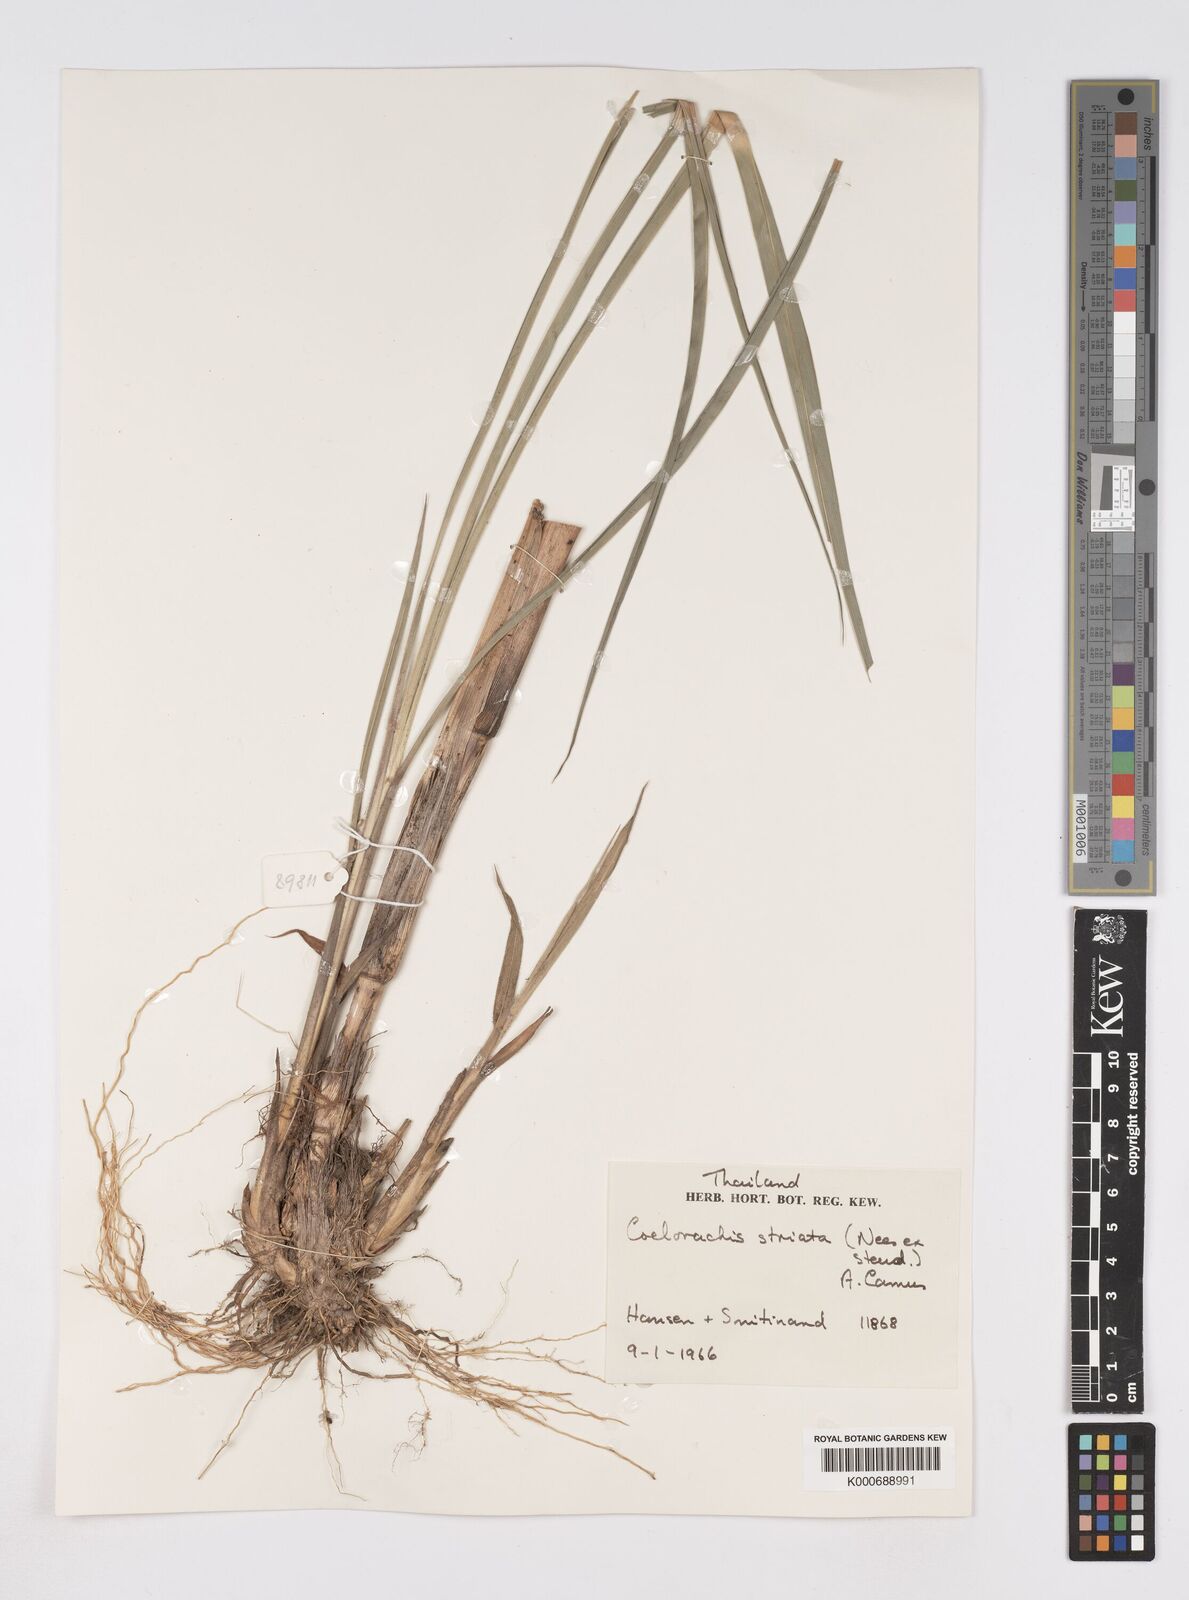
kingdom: Plantae
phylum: Tracheophyta
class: Liliopsida
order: Poales
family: Poaceae
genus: Rottboellia
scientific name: Rottboellia striata
